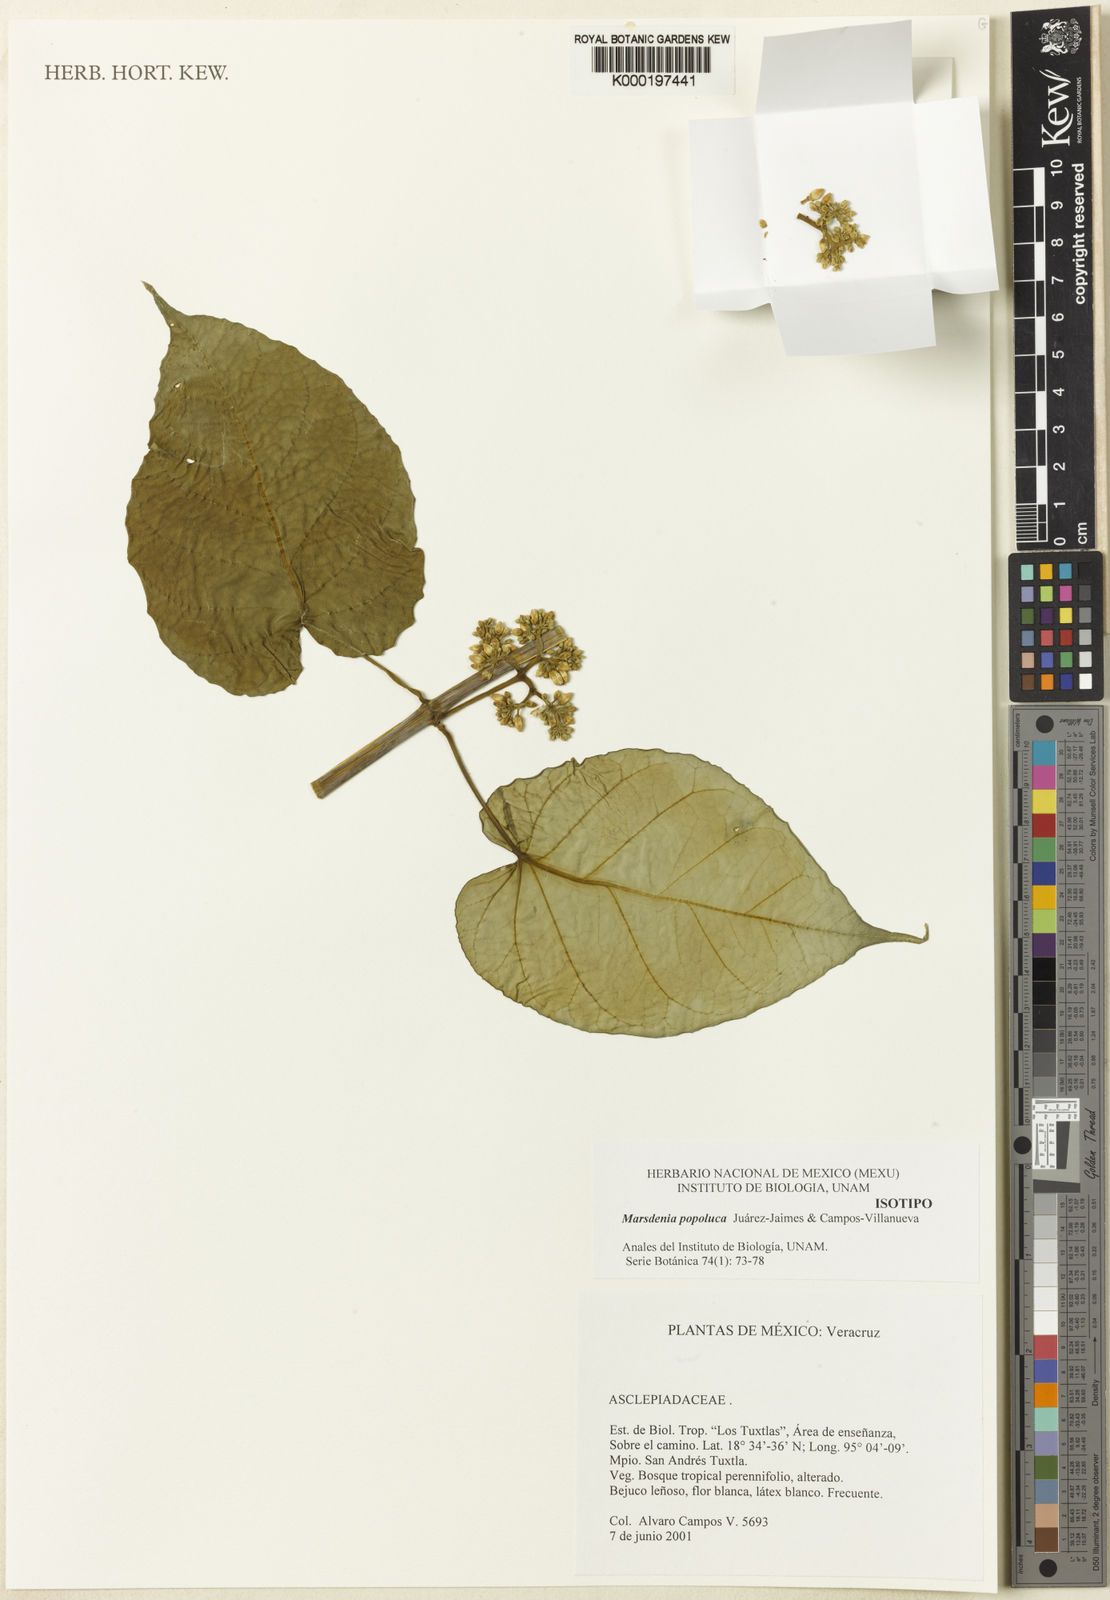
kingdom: Plantae
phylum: Tracheophyta
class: Magnoliopsida
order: Gentianales
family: Apocynaceae
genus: Marsdenia
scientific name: Marsdenia
